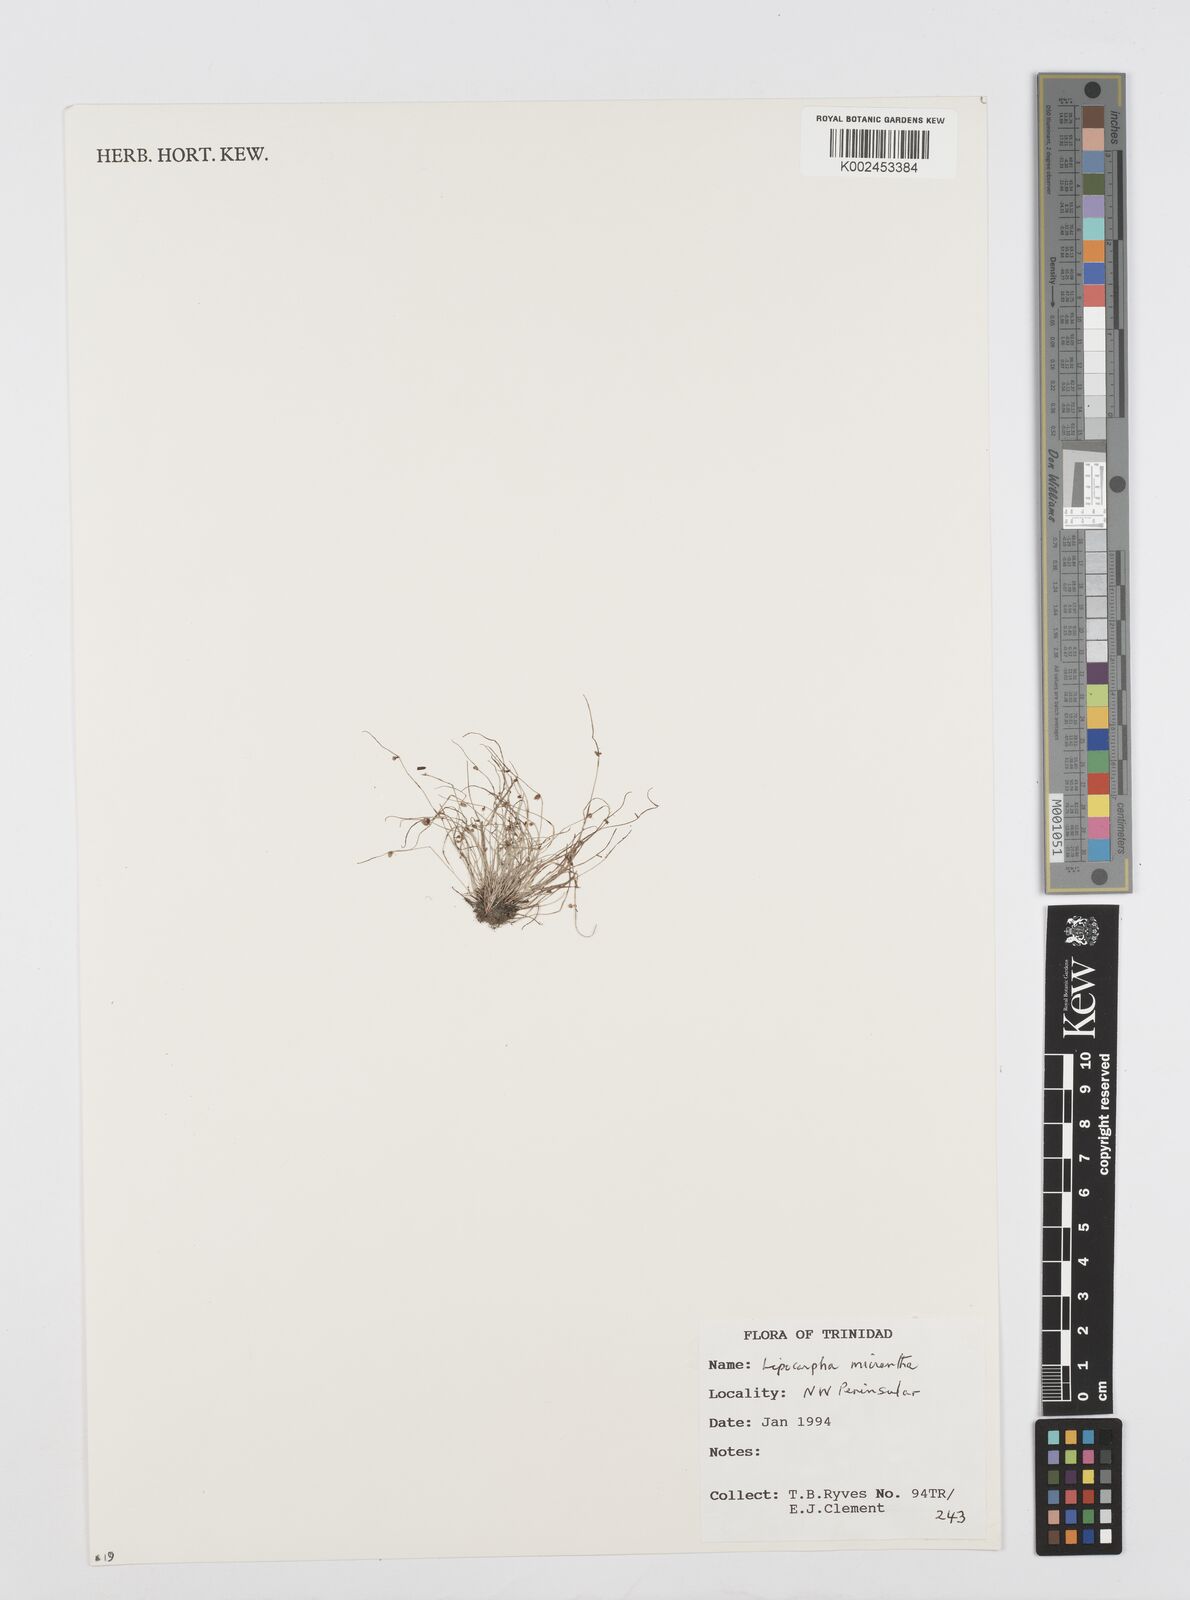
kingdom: Plantae
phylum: Tracheophyta
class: Liliopsida
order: Poales
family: Cyperaceae
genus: Cyperus
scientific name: Cyperus
